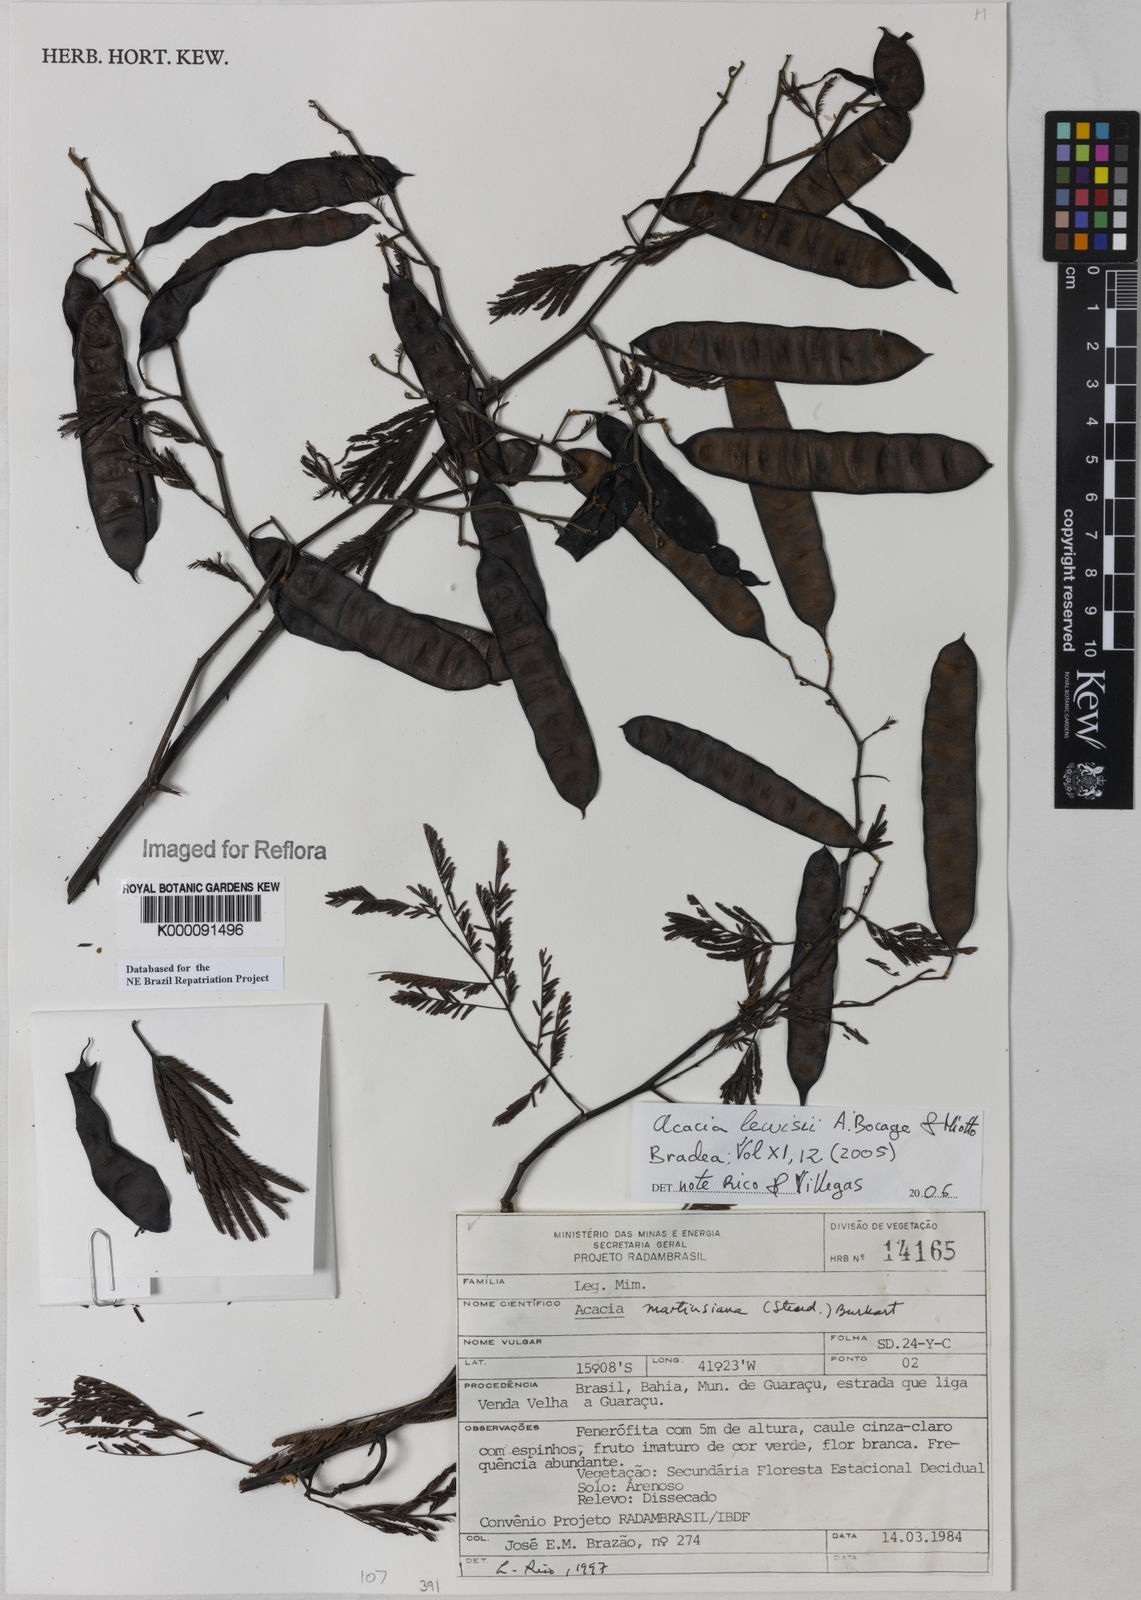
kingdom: Plantae
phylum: Tracheophyta
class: Magnoliopsida
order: Fabales
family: Fabaceae
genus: Senegalia
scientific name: Senegalia fiebrigii
